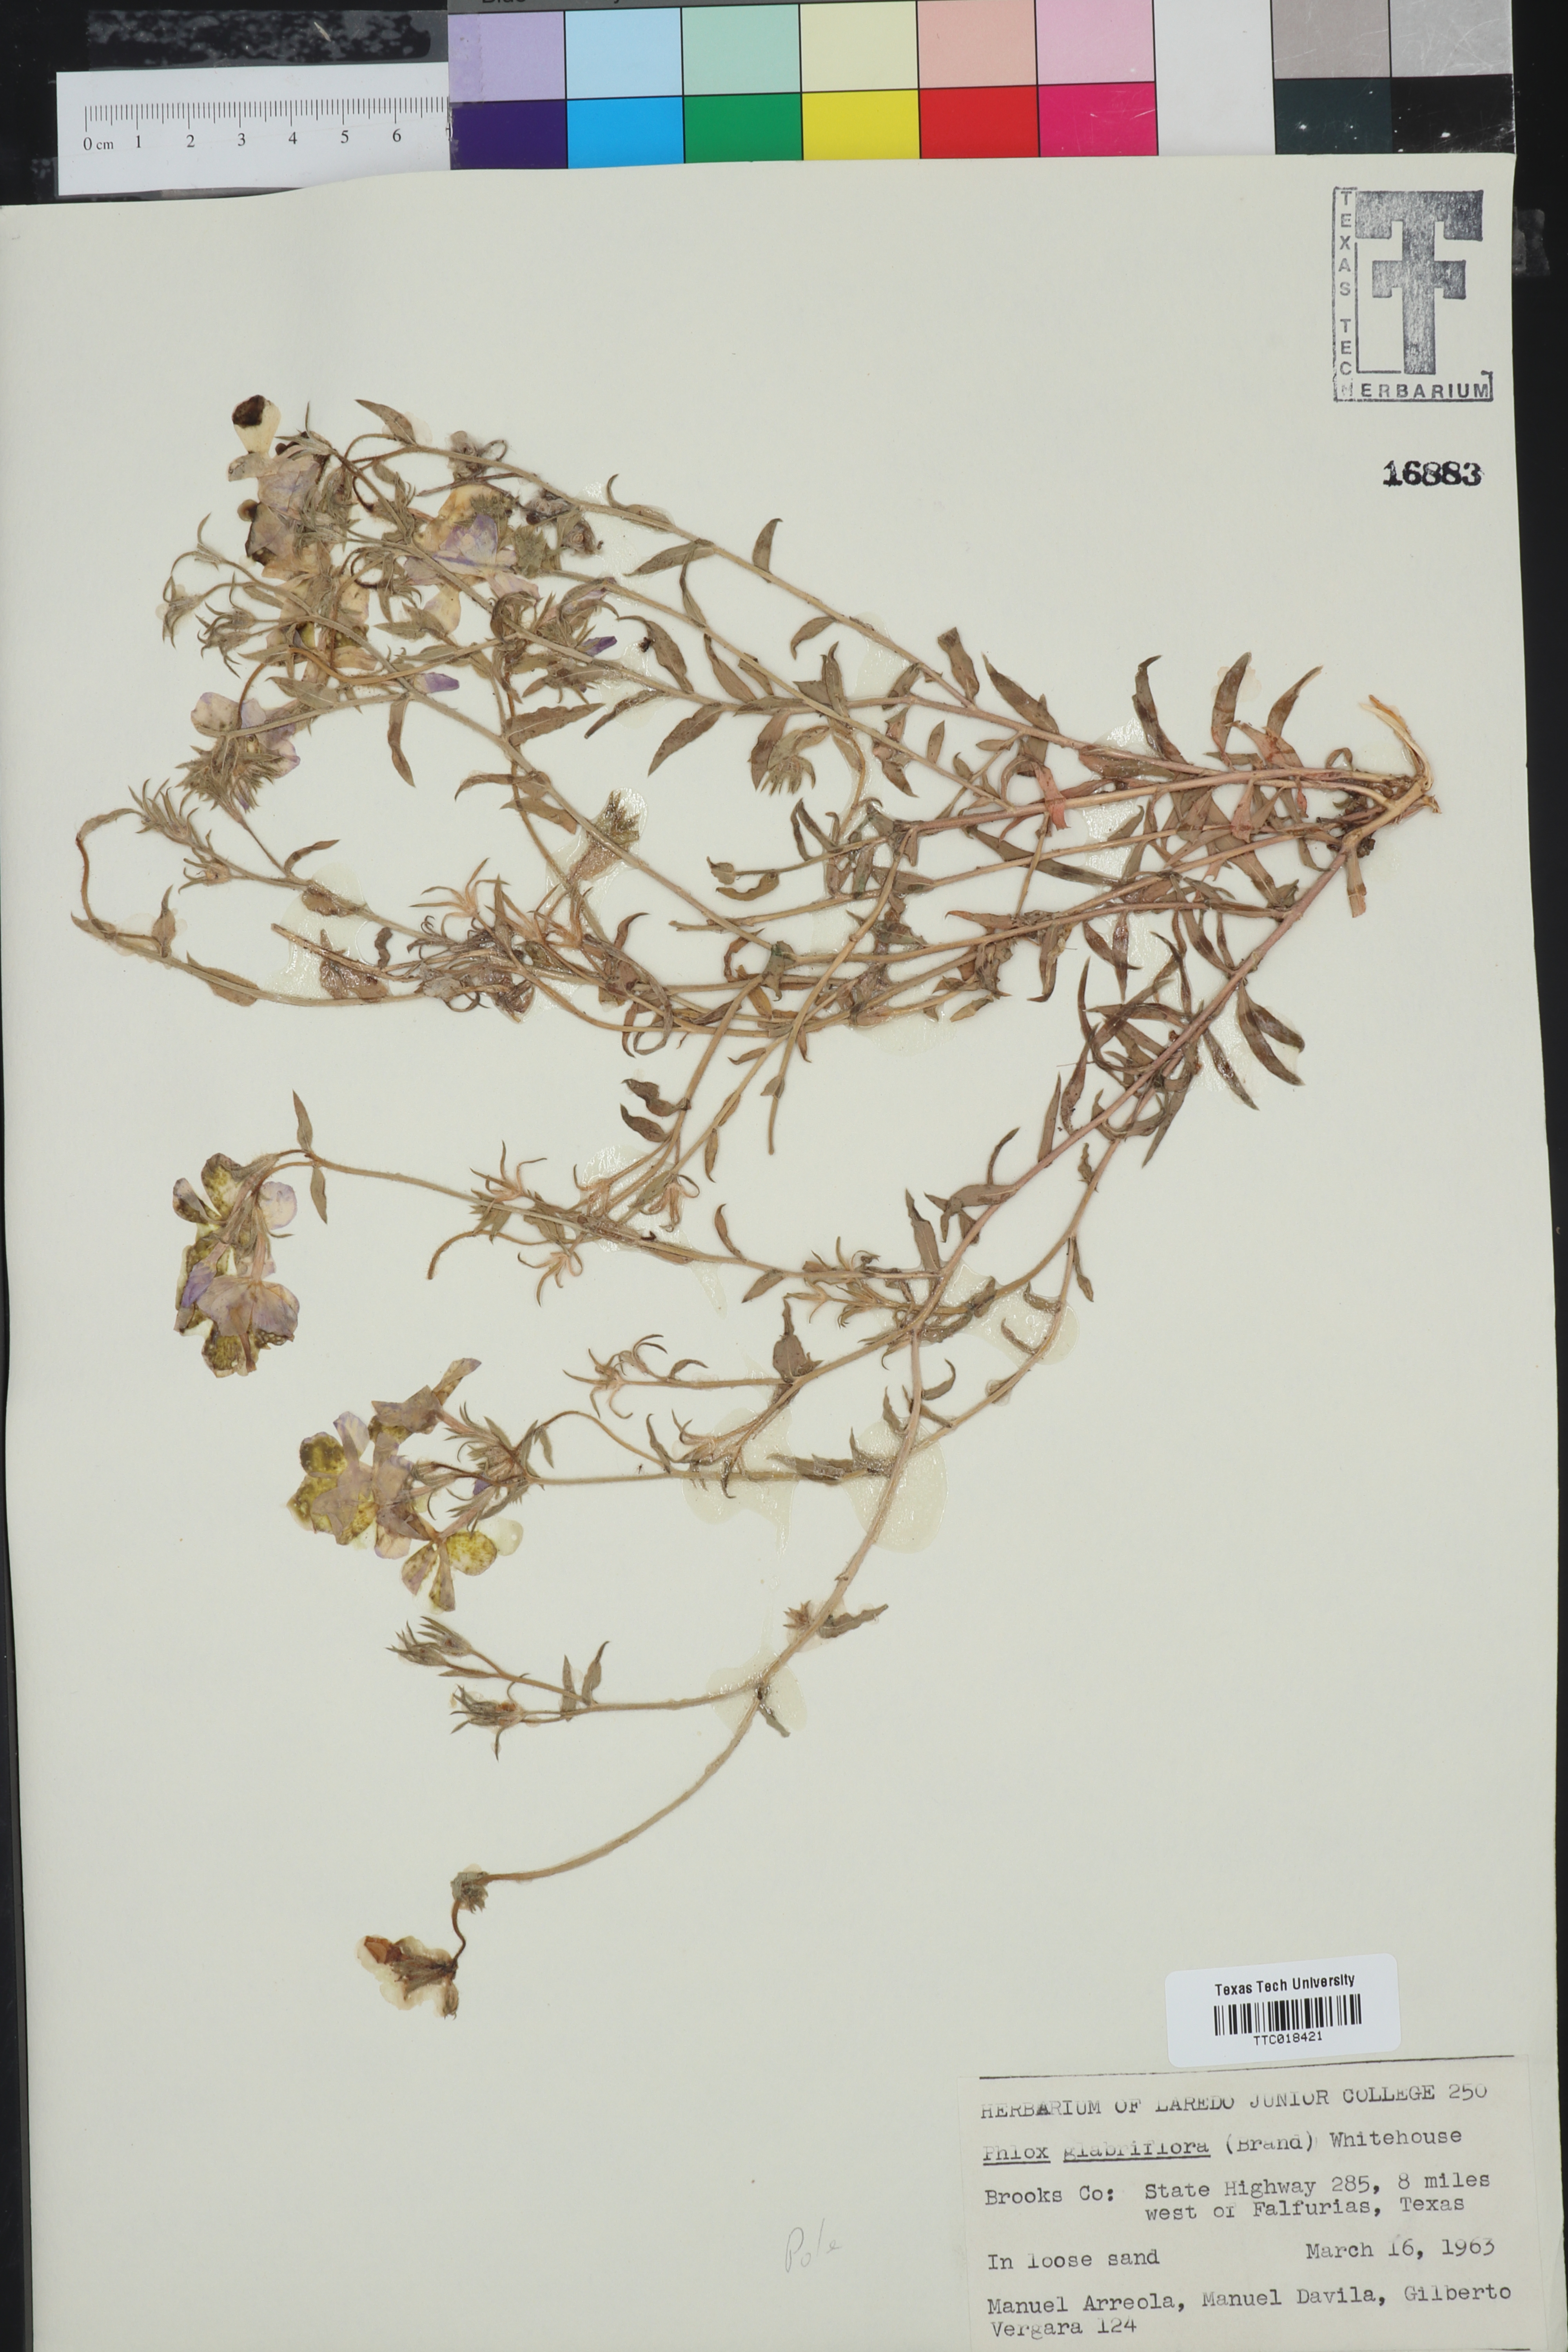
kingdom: Plantae
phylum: Tracheophyta
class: Magnoliopsida
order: Ericales
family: Polemoniaceae
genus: Phlox
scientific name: Phlox glabriflora
